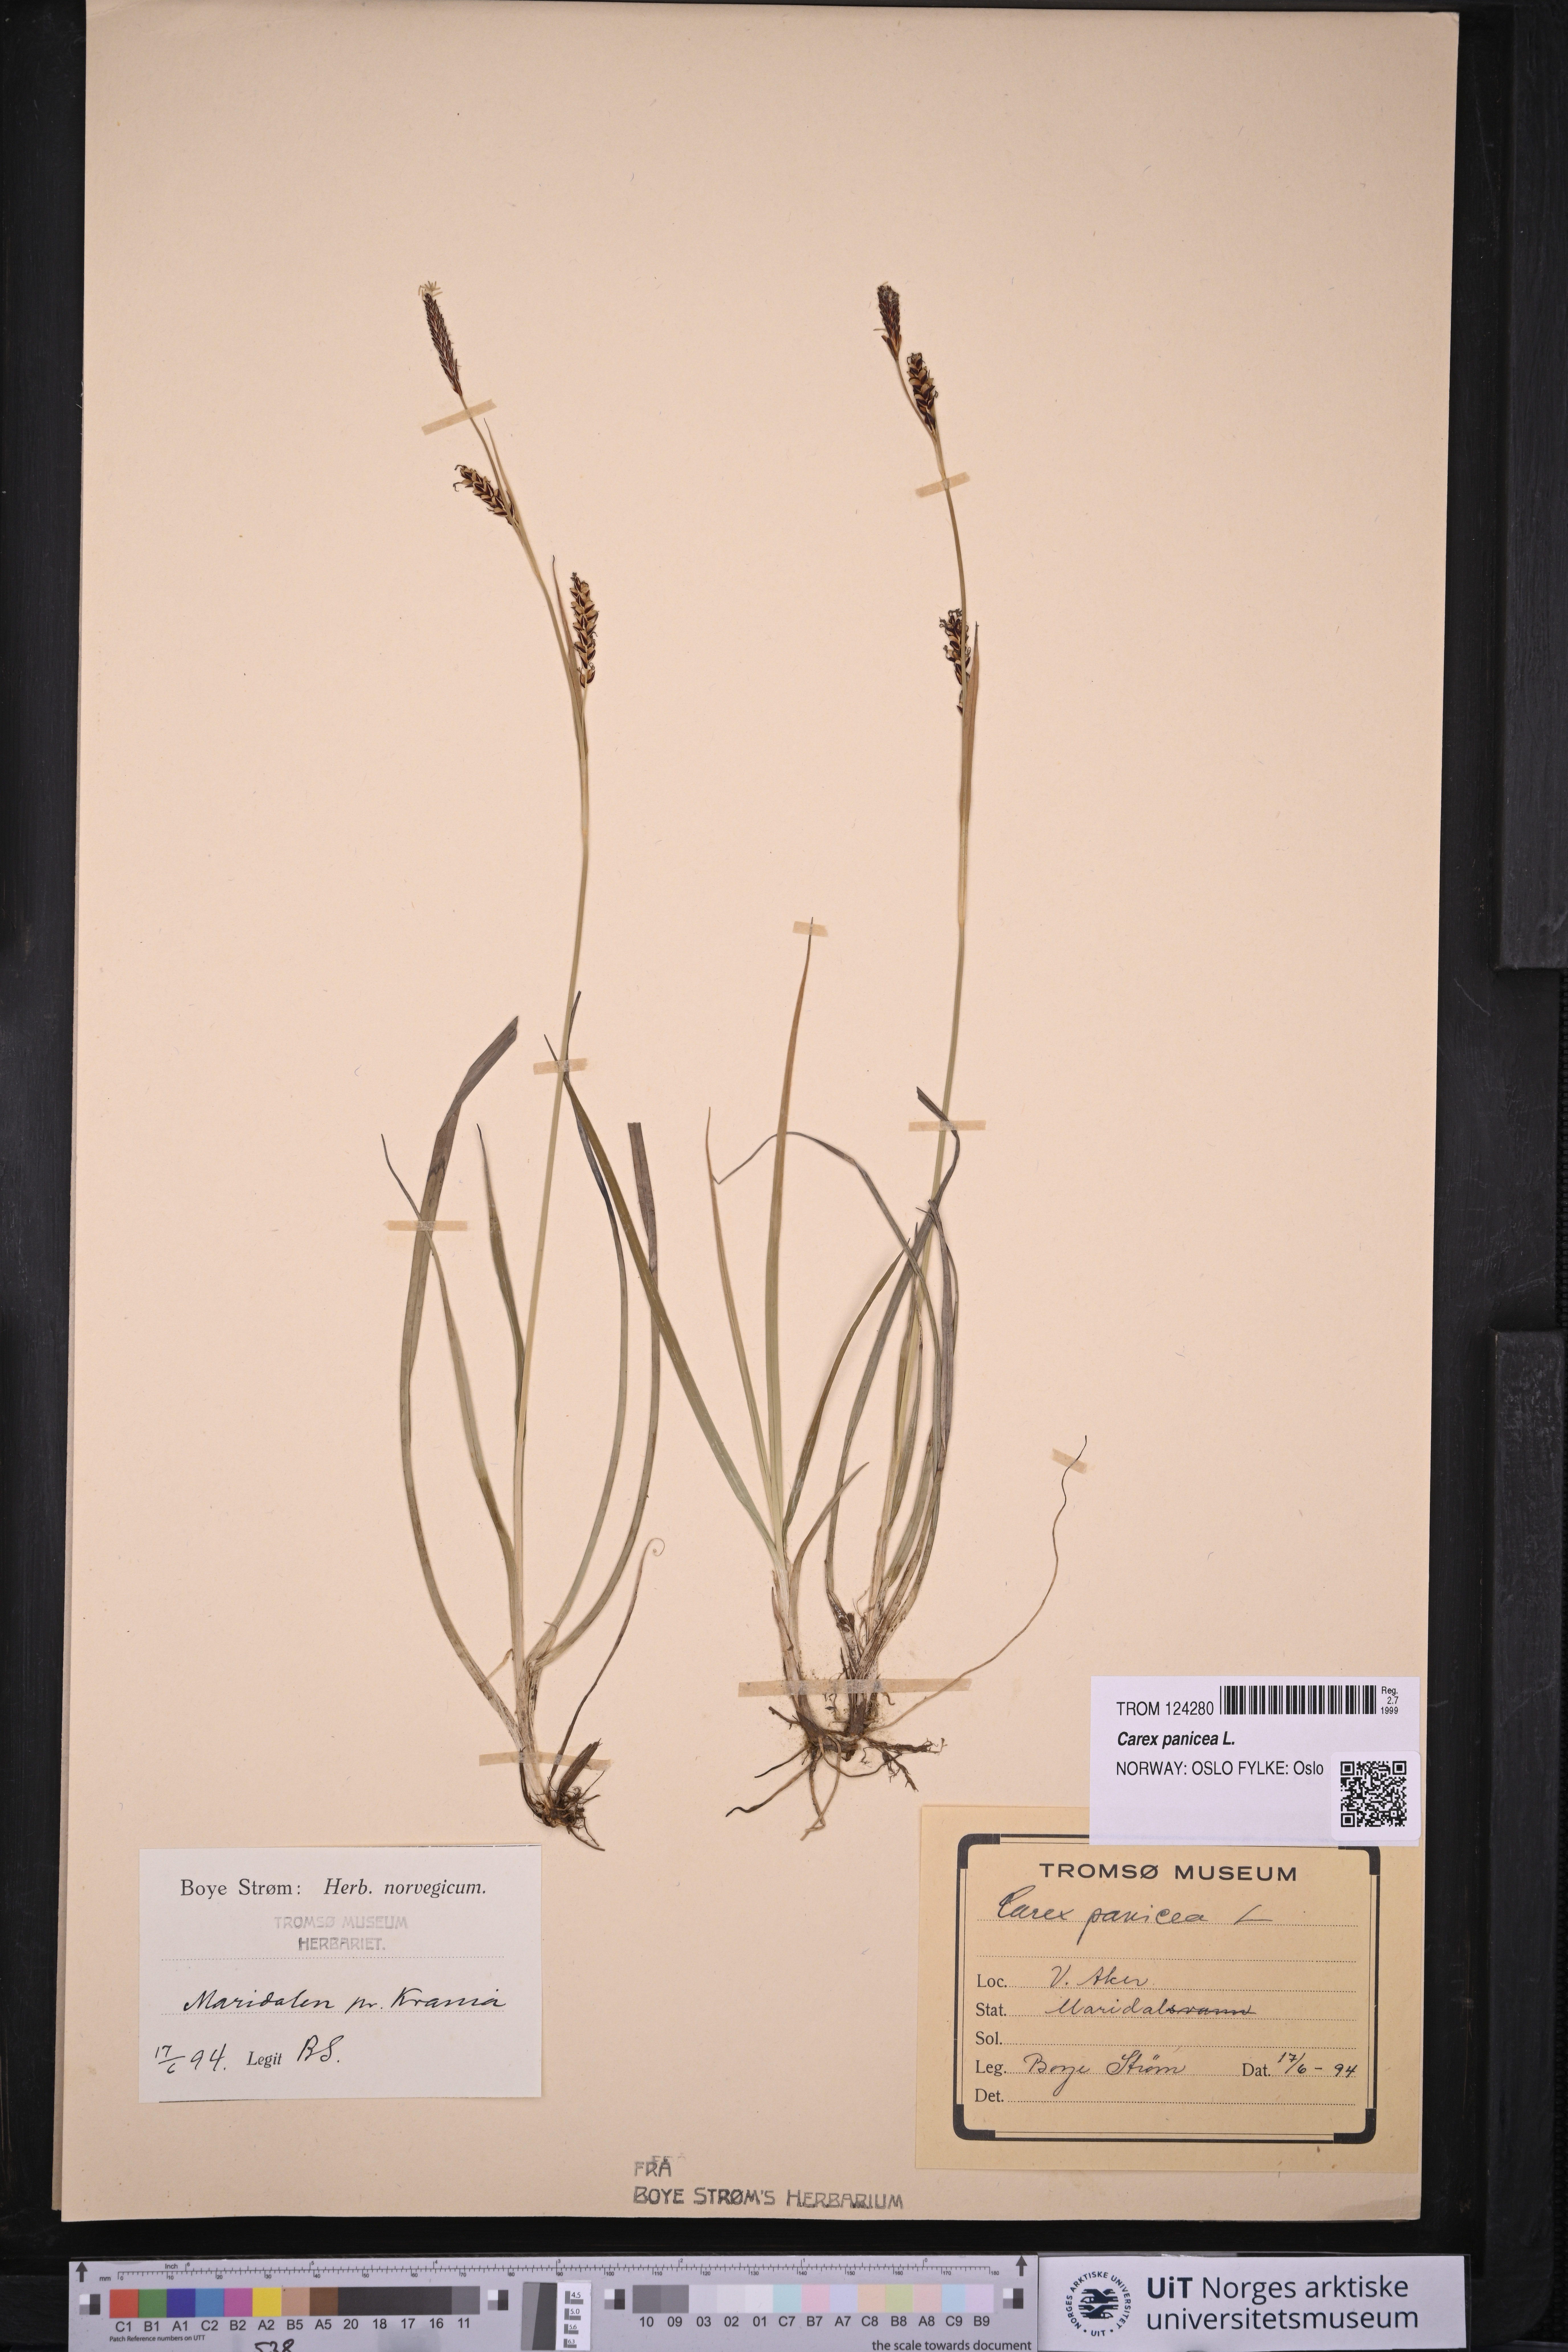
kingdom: Plantae
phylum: Tracheophyta
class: Liliopsida
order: Poales
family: Cyperaceae
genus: Carex
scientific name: Carex panicea
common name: Carnation sedge
